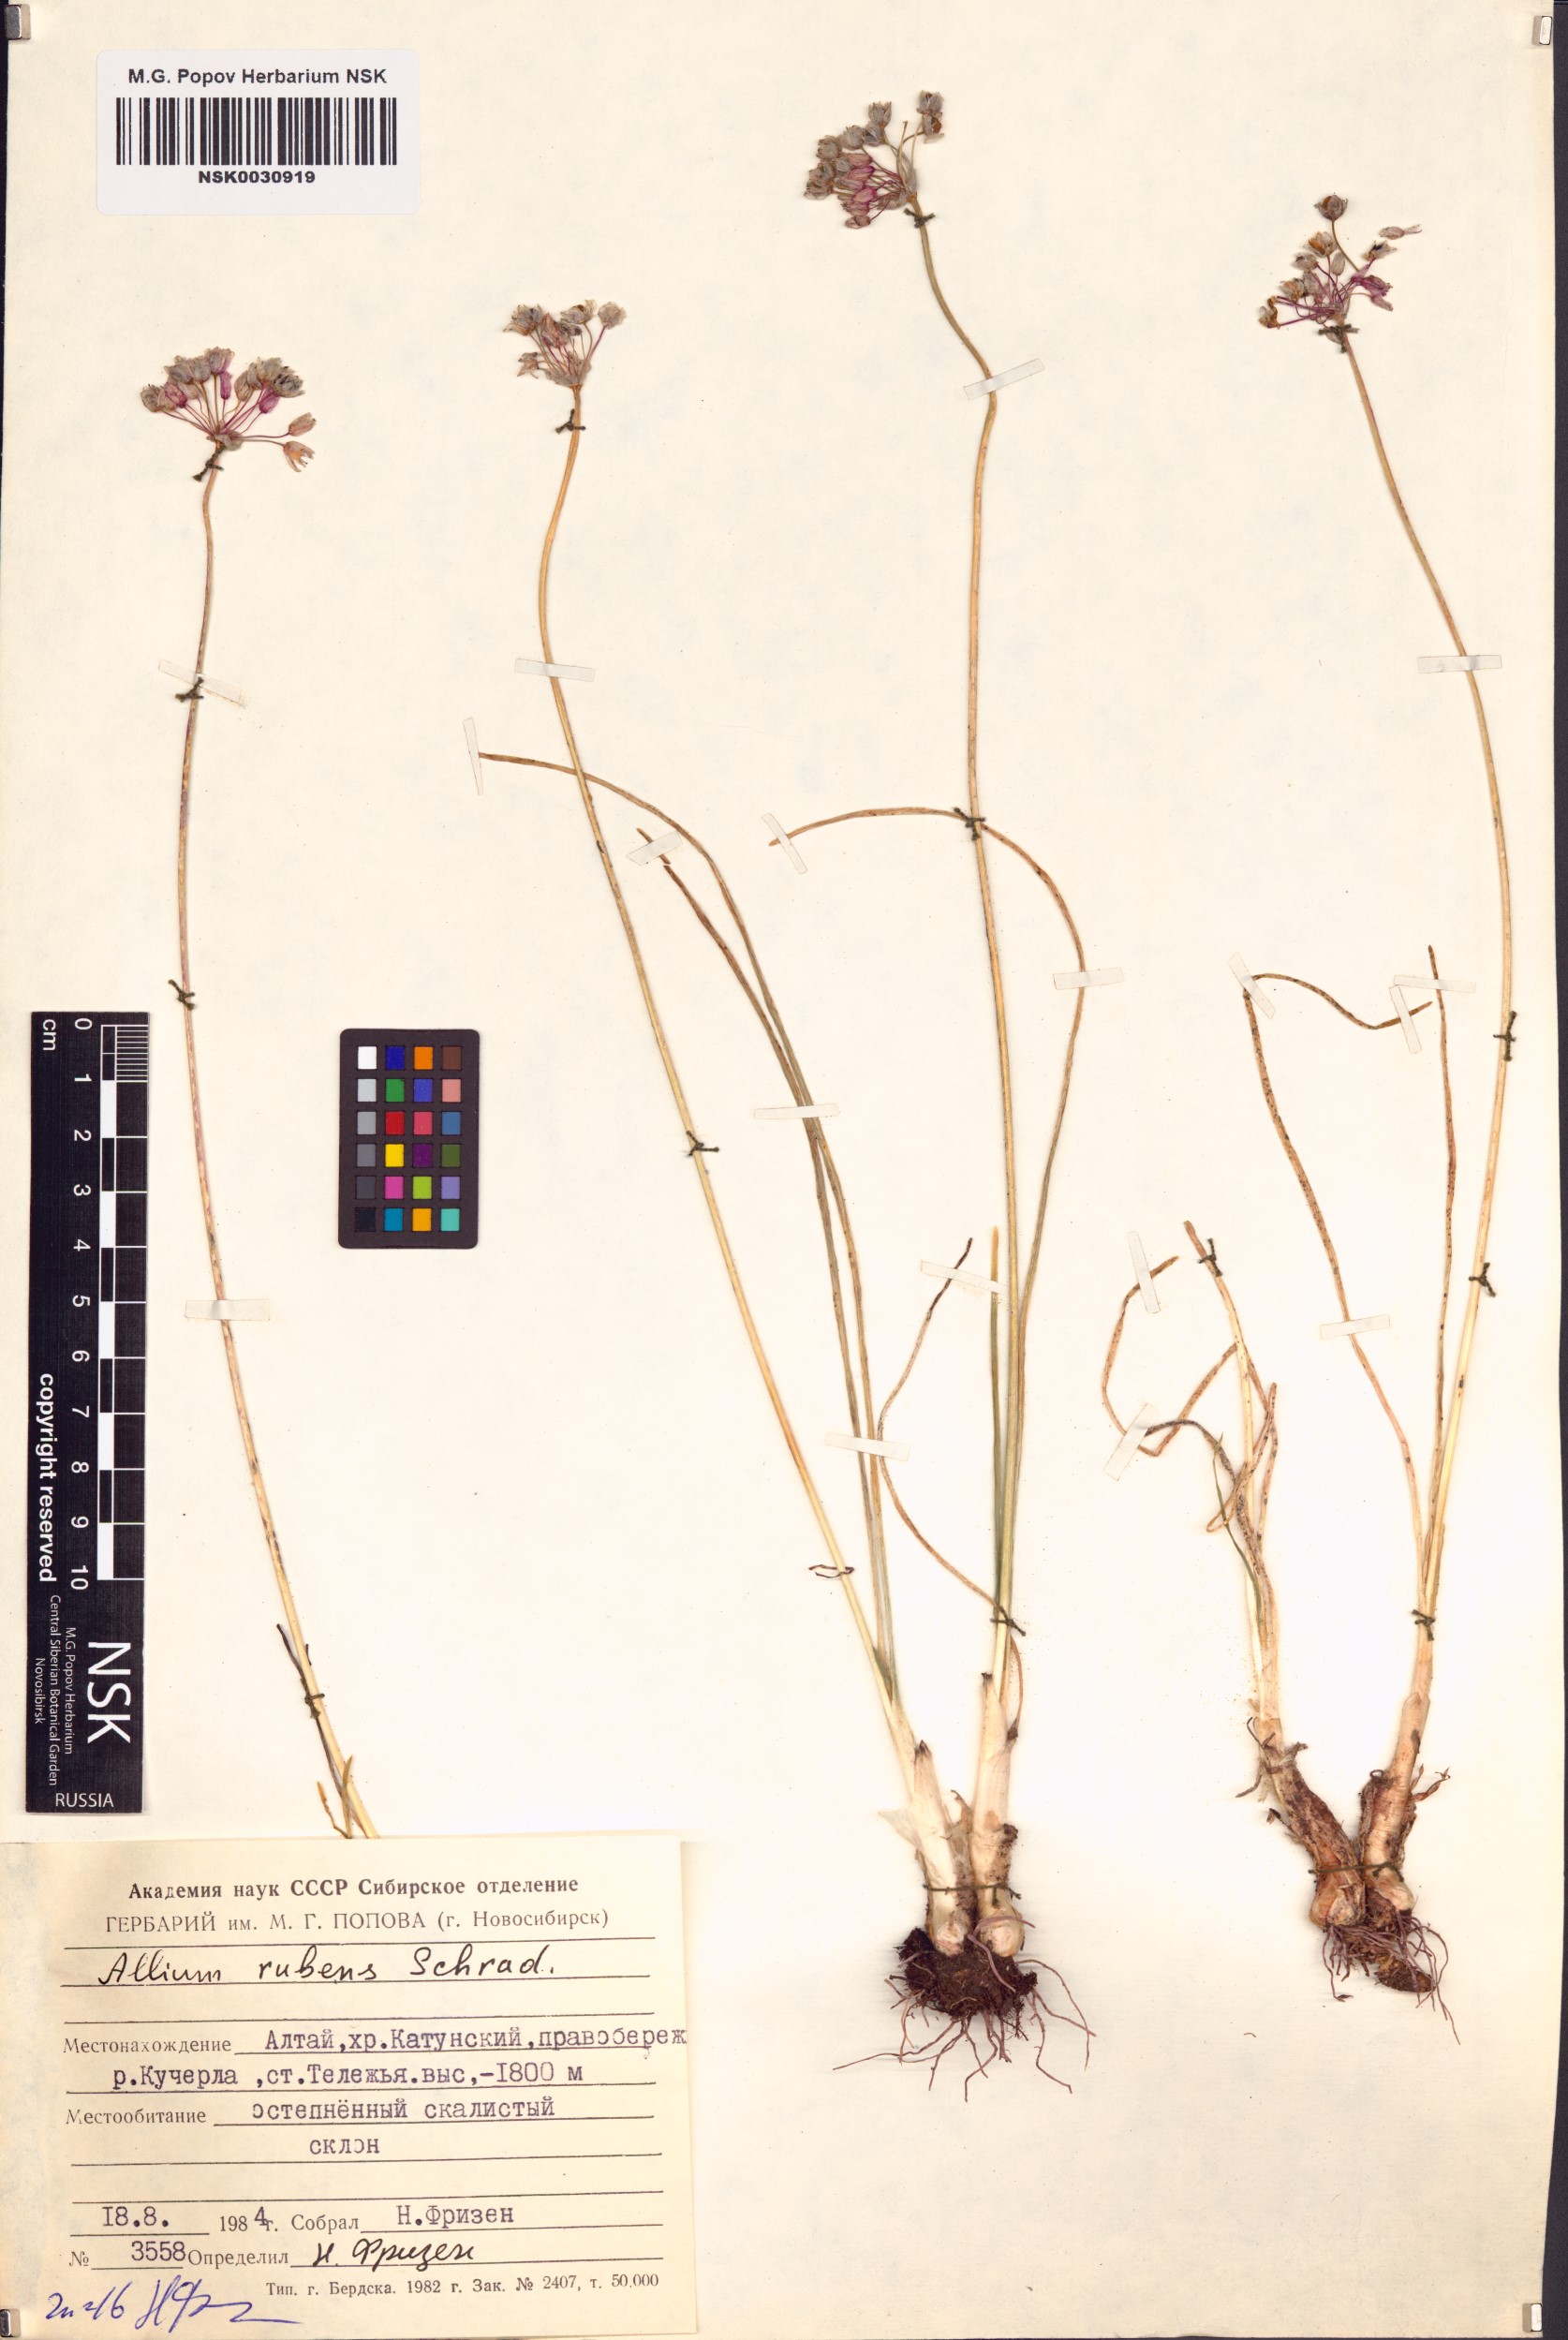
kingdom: Plantae
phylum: Tracheophyta
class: Liliopsida
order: Asparagales
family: Amaryllidaceae
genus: Allium
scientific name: Allium rubens
